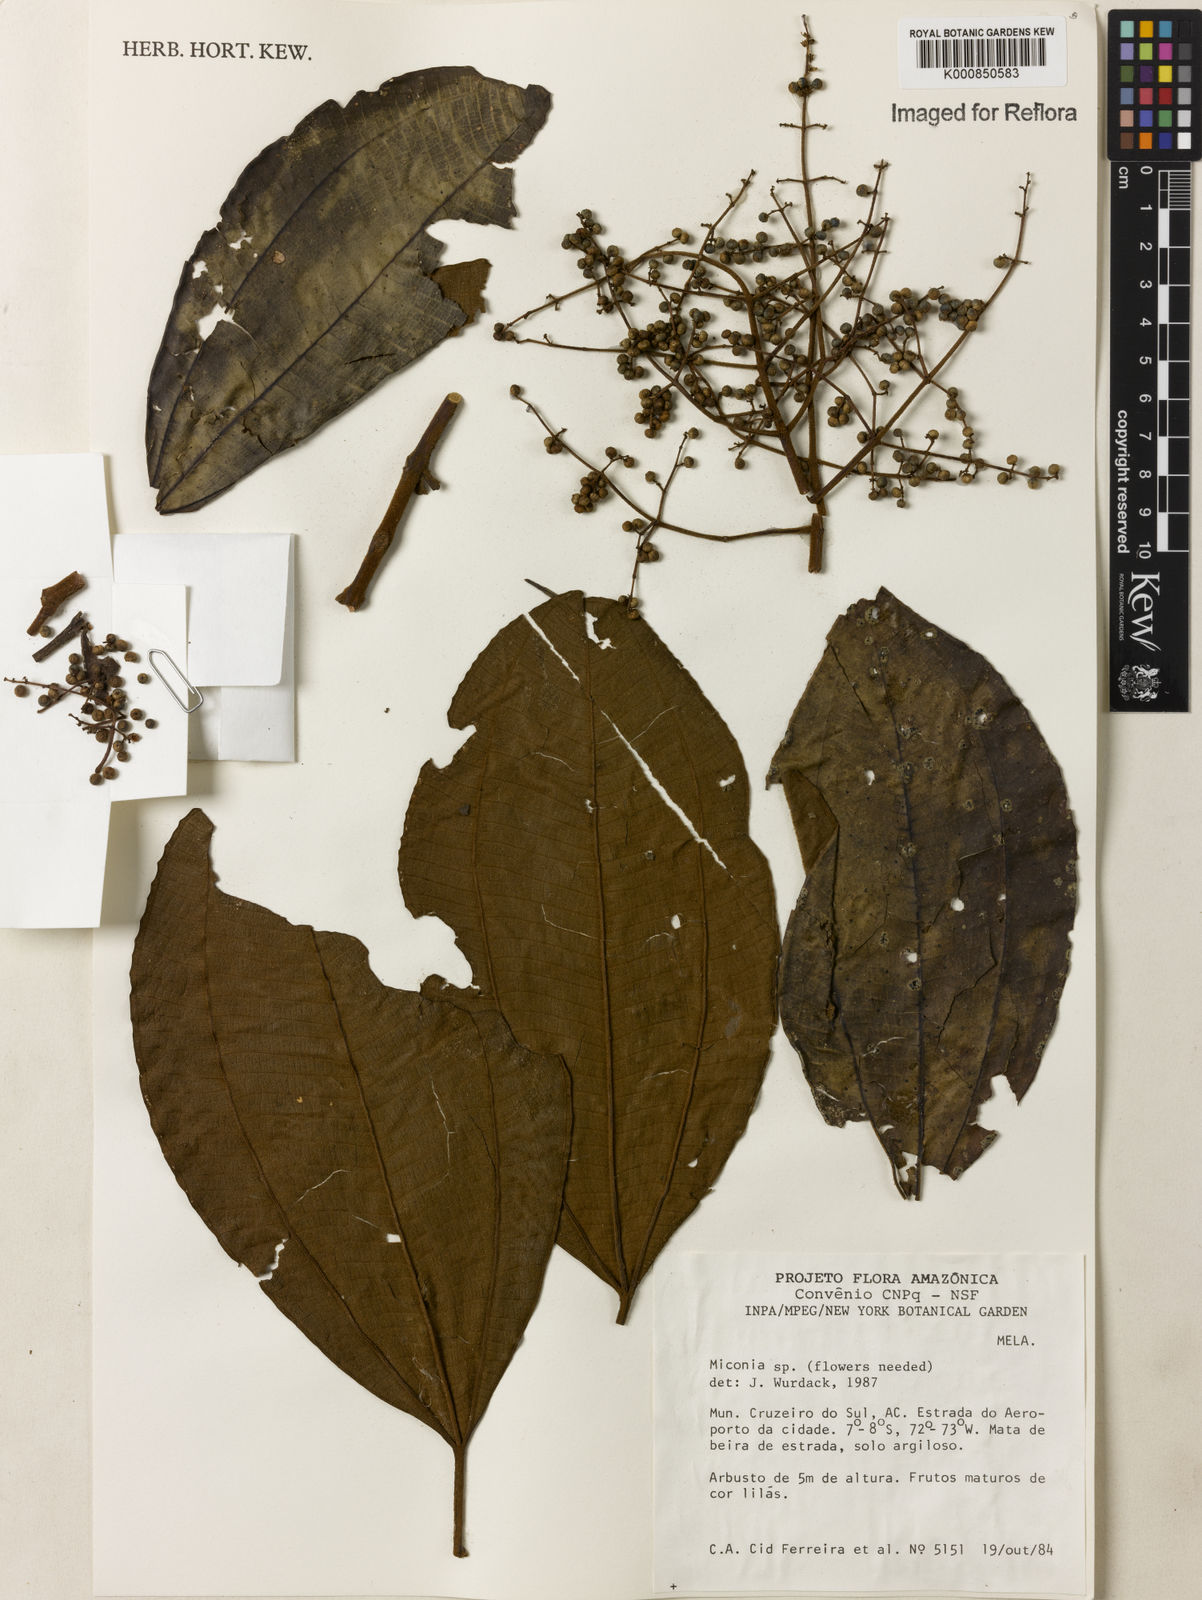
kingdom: Plantae
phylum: Tracheophyta
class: Magnoliopsida
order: Myrtales
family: Melastomataceae
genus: Miconia
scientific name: Miconia
